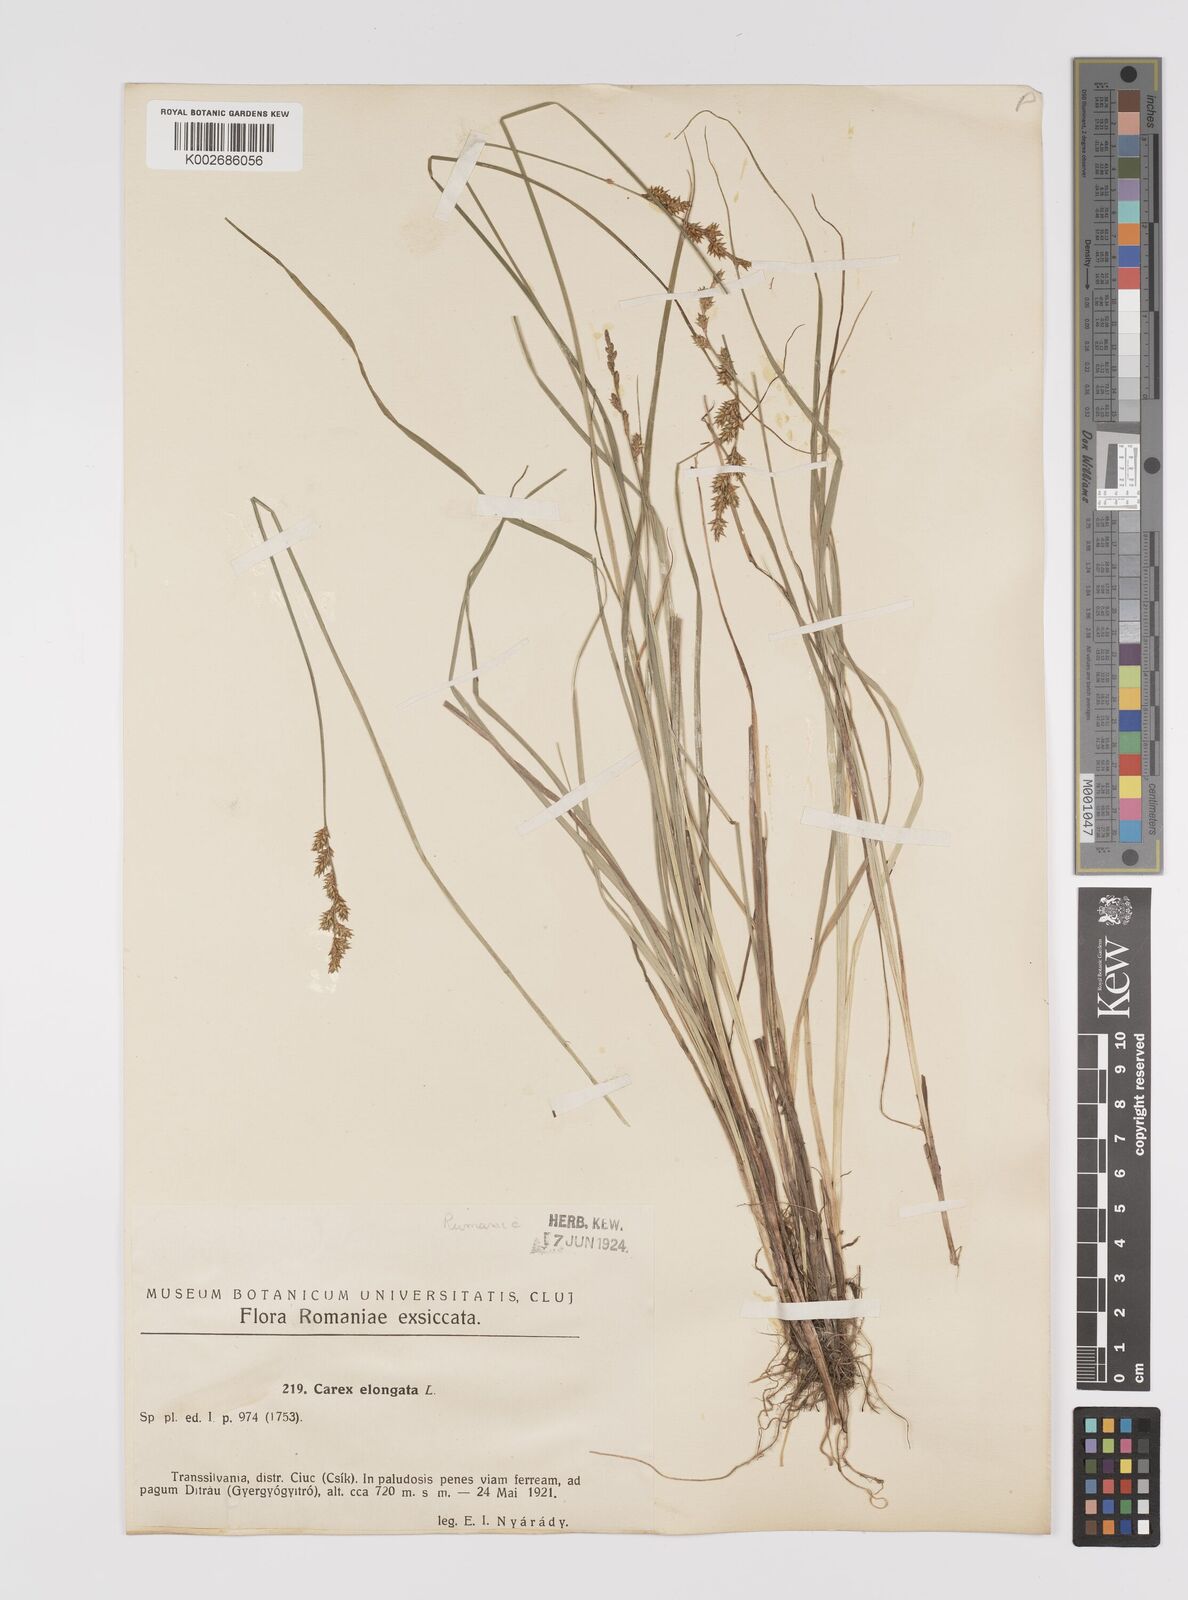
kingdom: Plantae
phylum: Tracheophyta
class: Liliopsida
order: Poales
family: Cyperaceae
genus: Carex
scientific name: Carex elongata
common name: Elongated sedge
